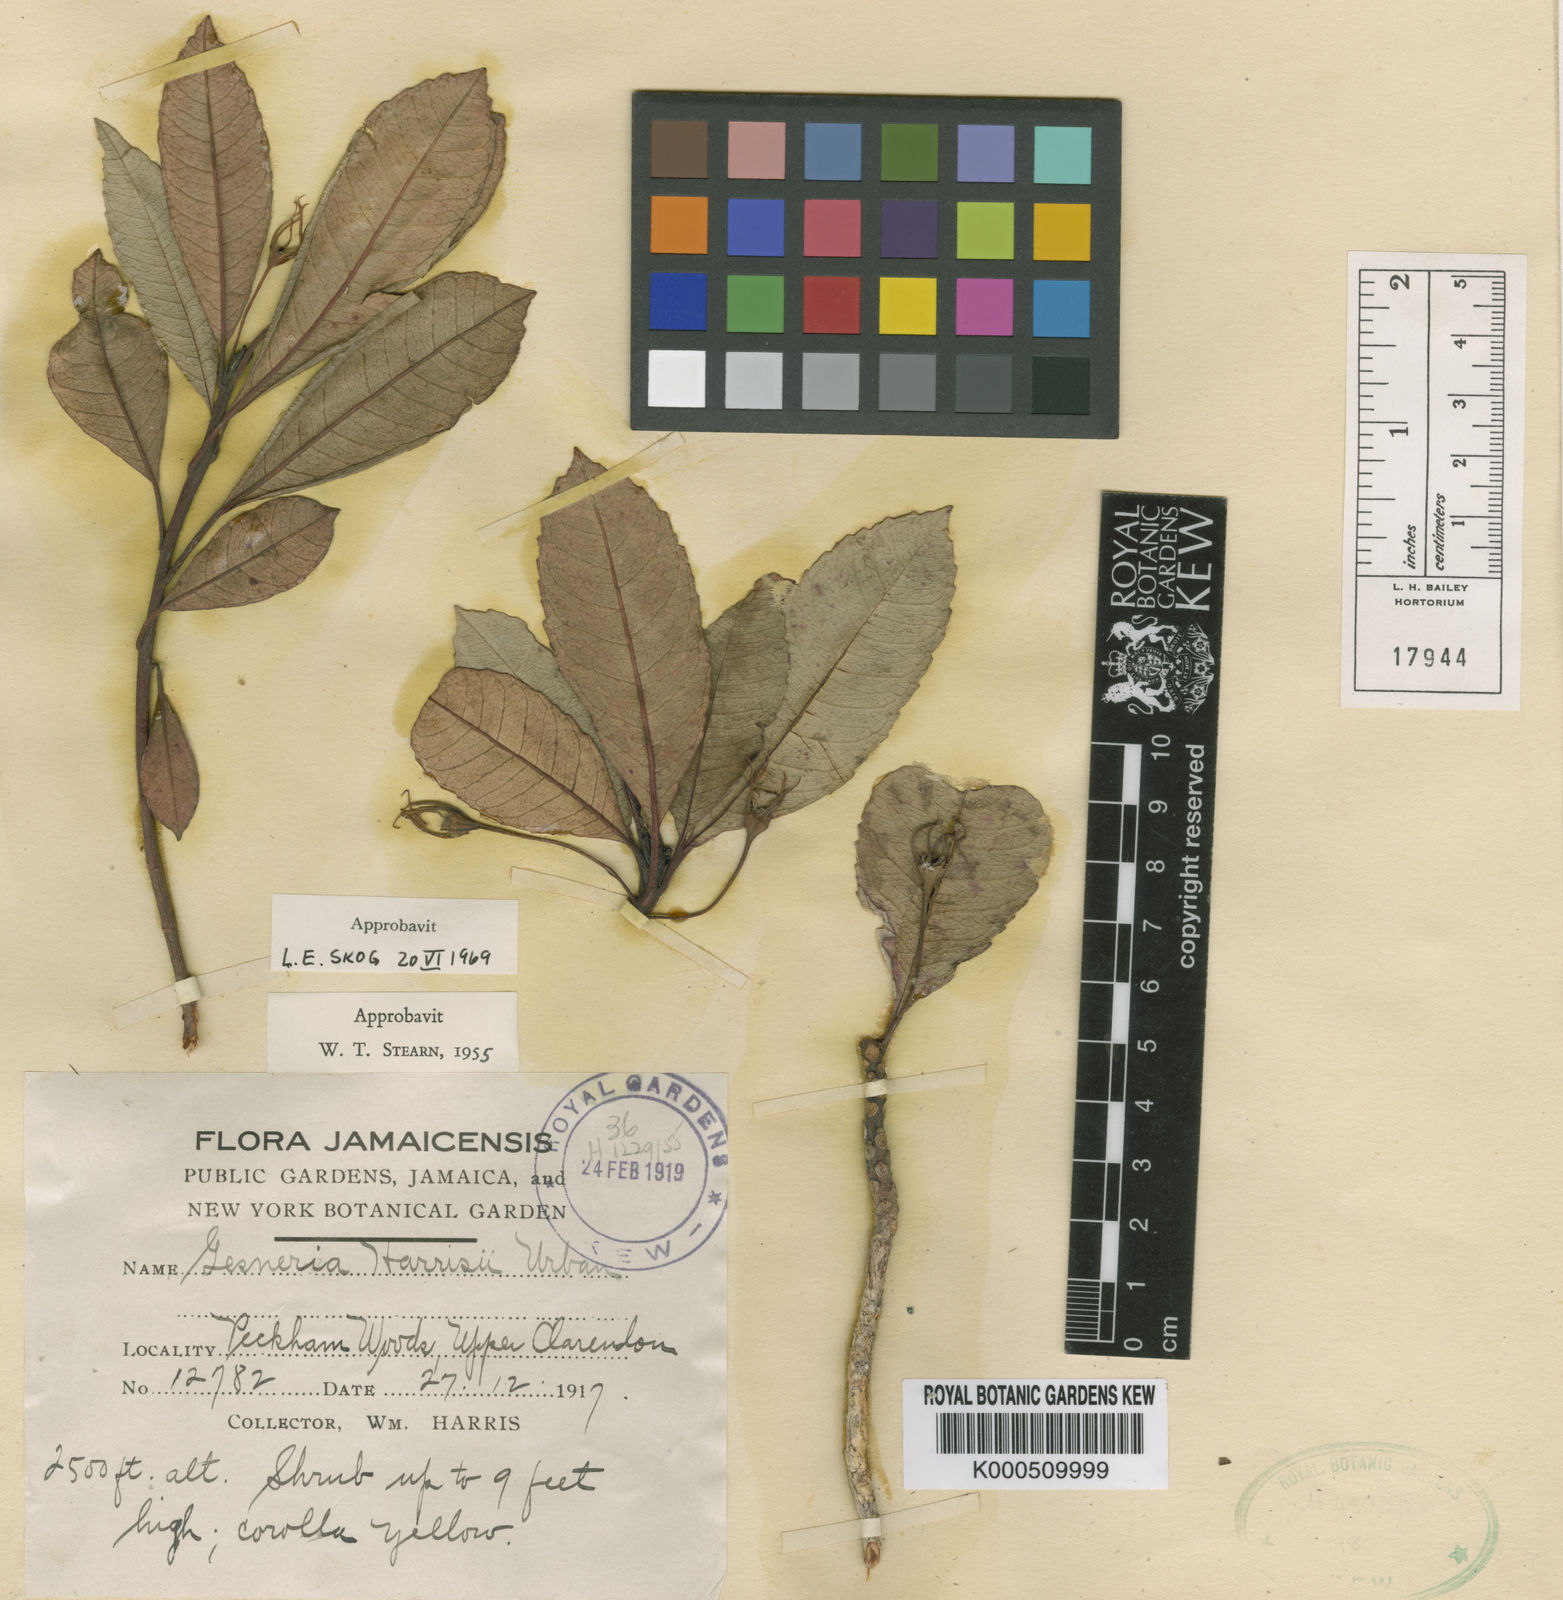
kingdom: Plantae
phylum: Tracheophyta
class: Magnoliopsida
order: Lamiales
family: Gesneriaceae
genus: Gesneria
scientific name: Gesneria harrisii
